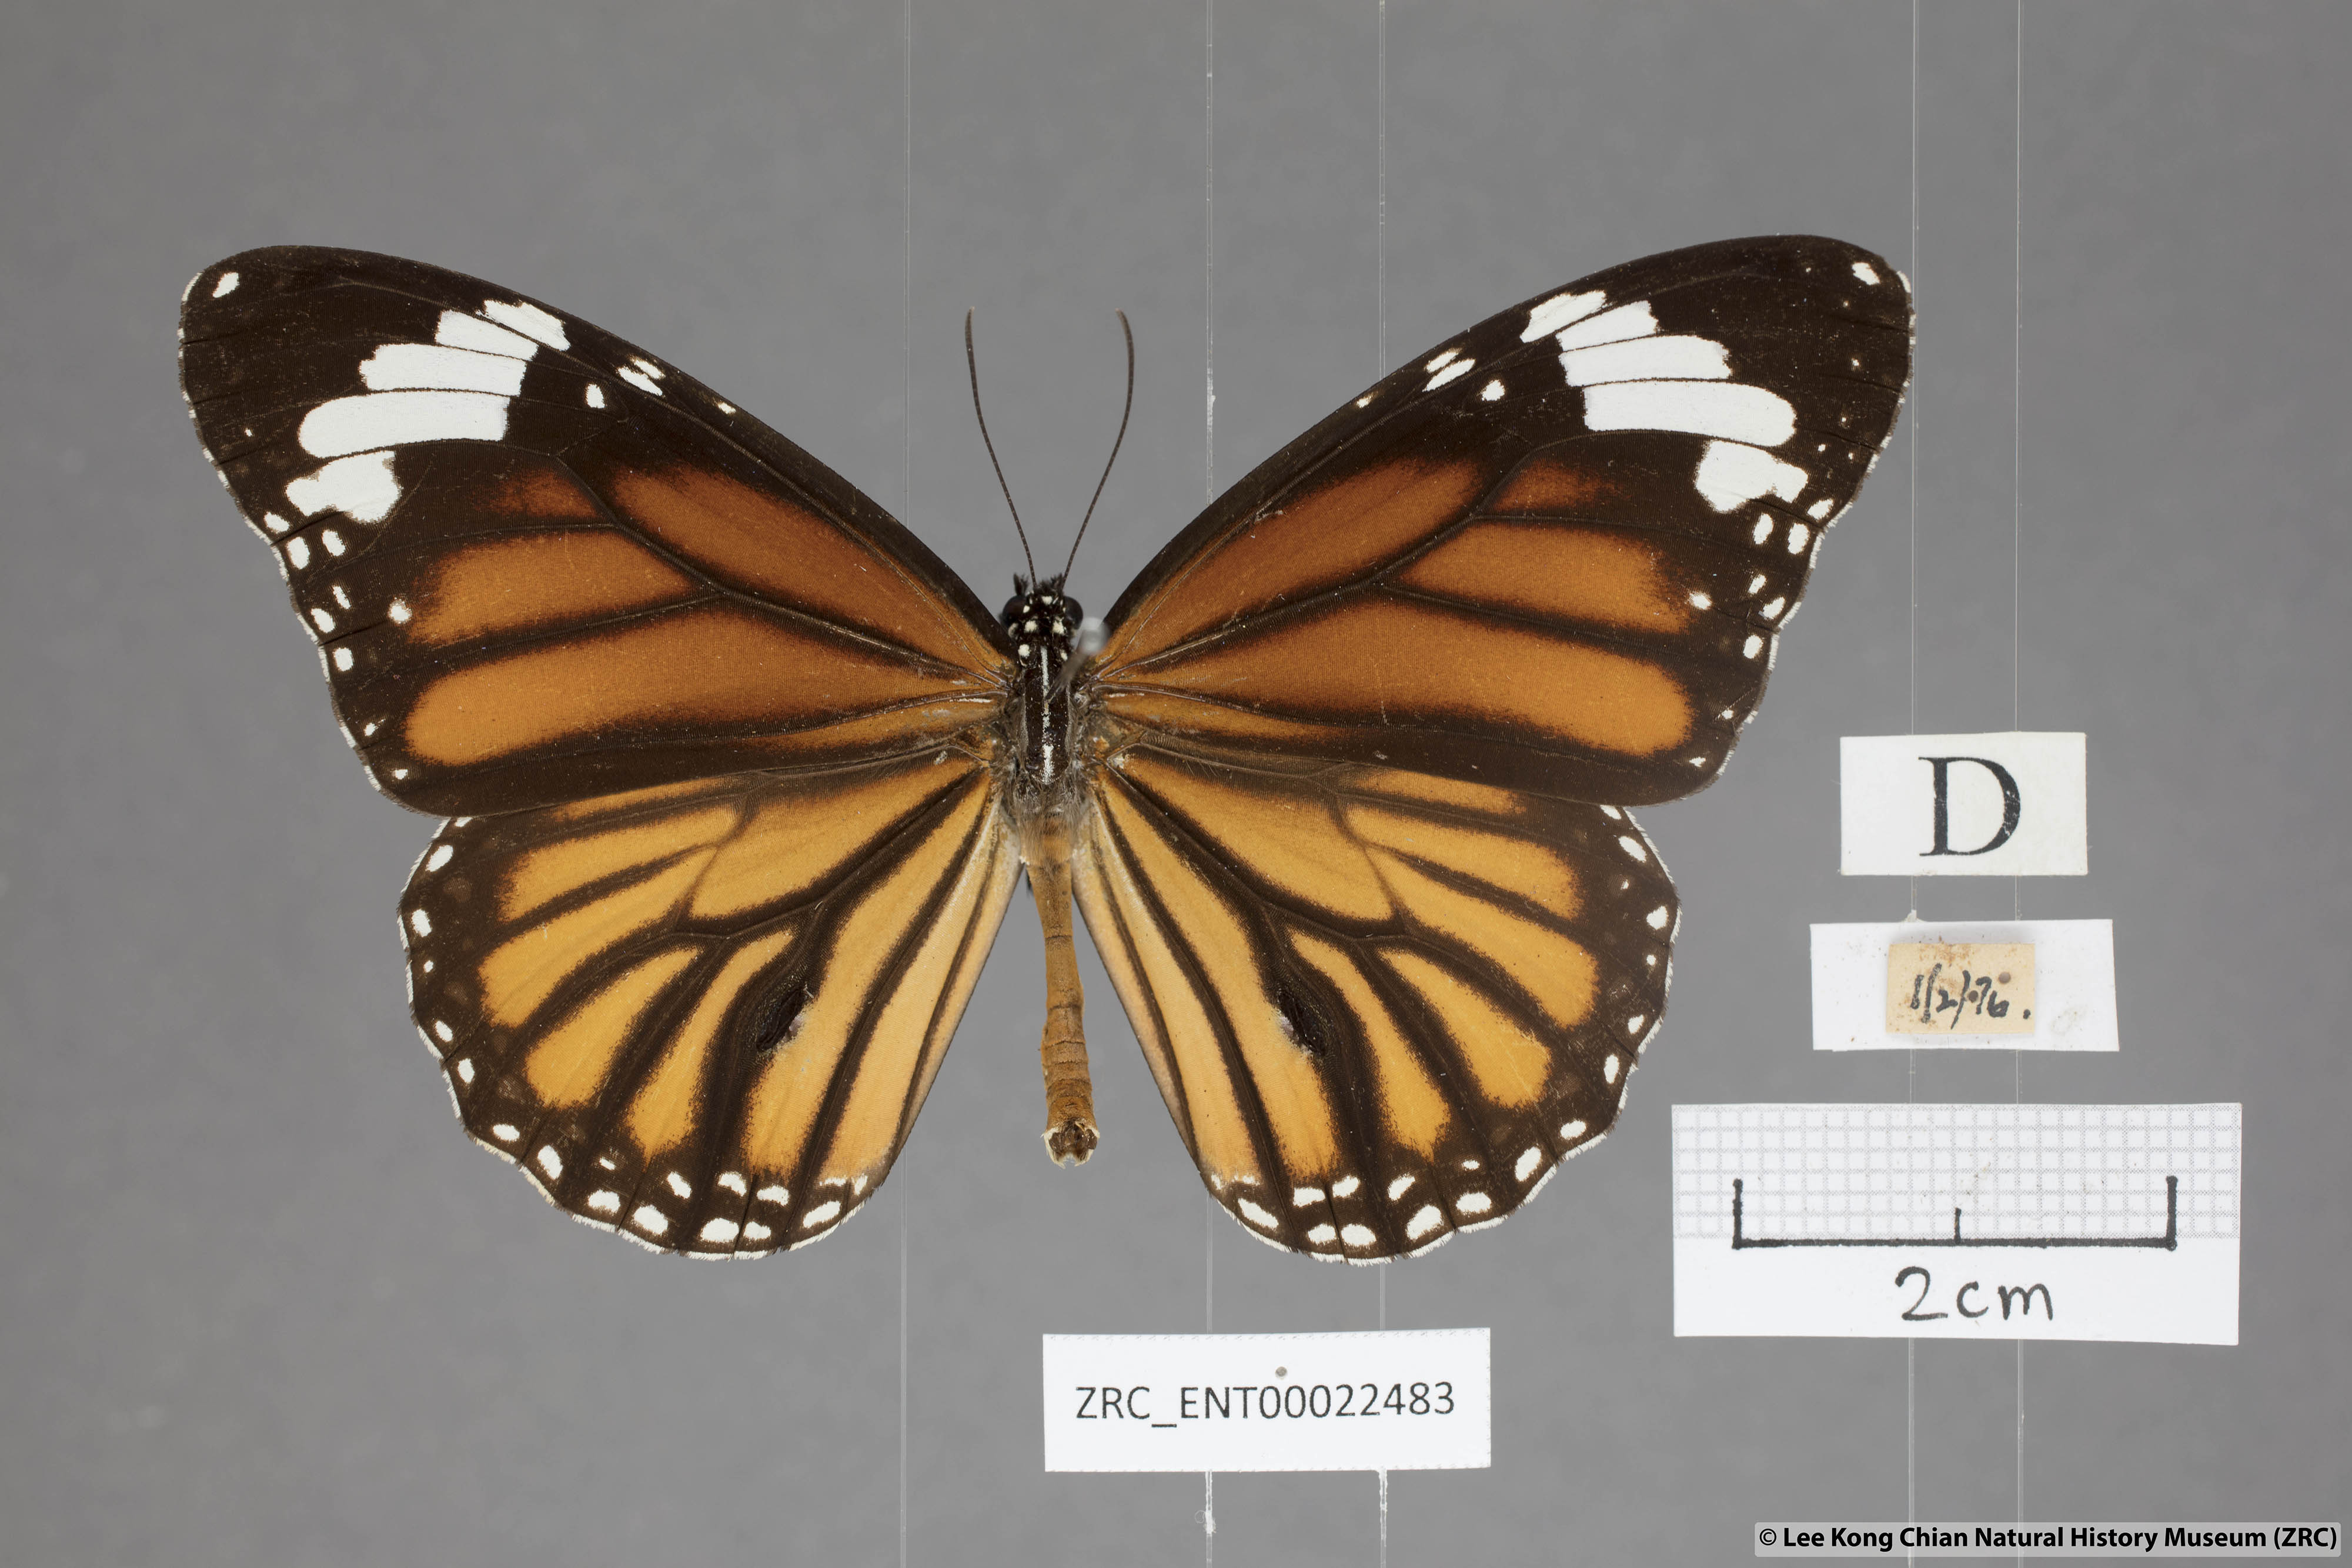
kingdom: Animalia
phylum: Arthropoda
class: Insecta
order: Lepidoptera
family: Nymphalidae
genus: Danaus
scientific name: Danaus genutia
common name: Common tiger butterfly
